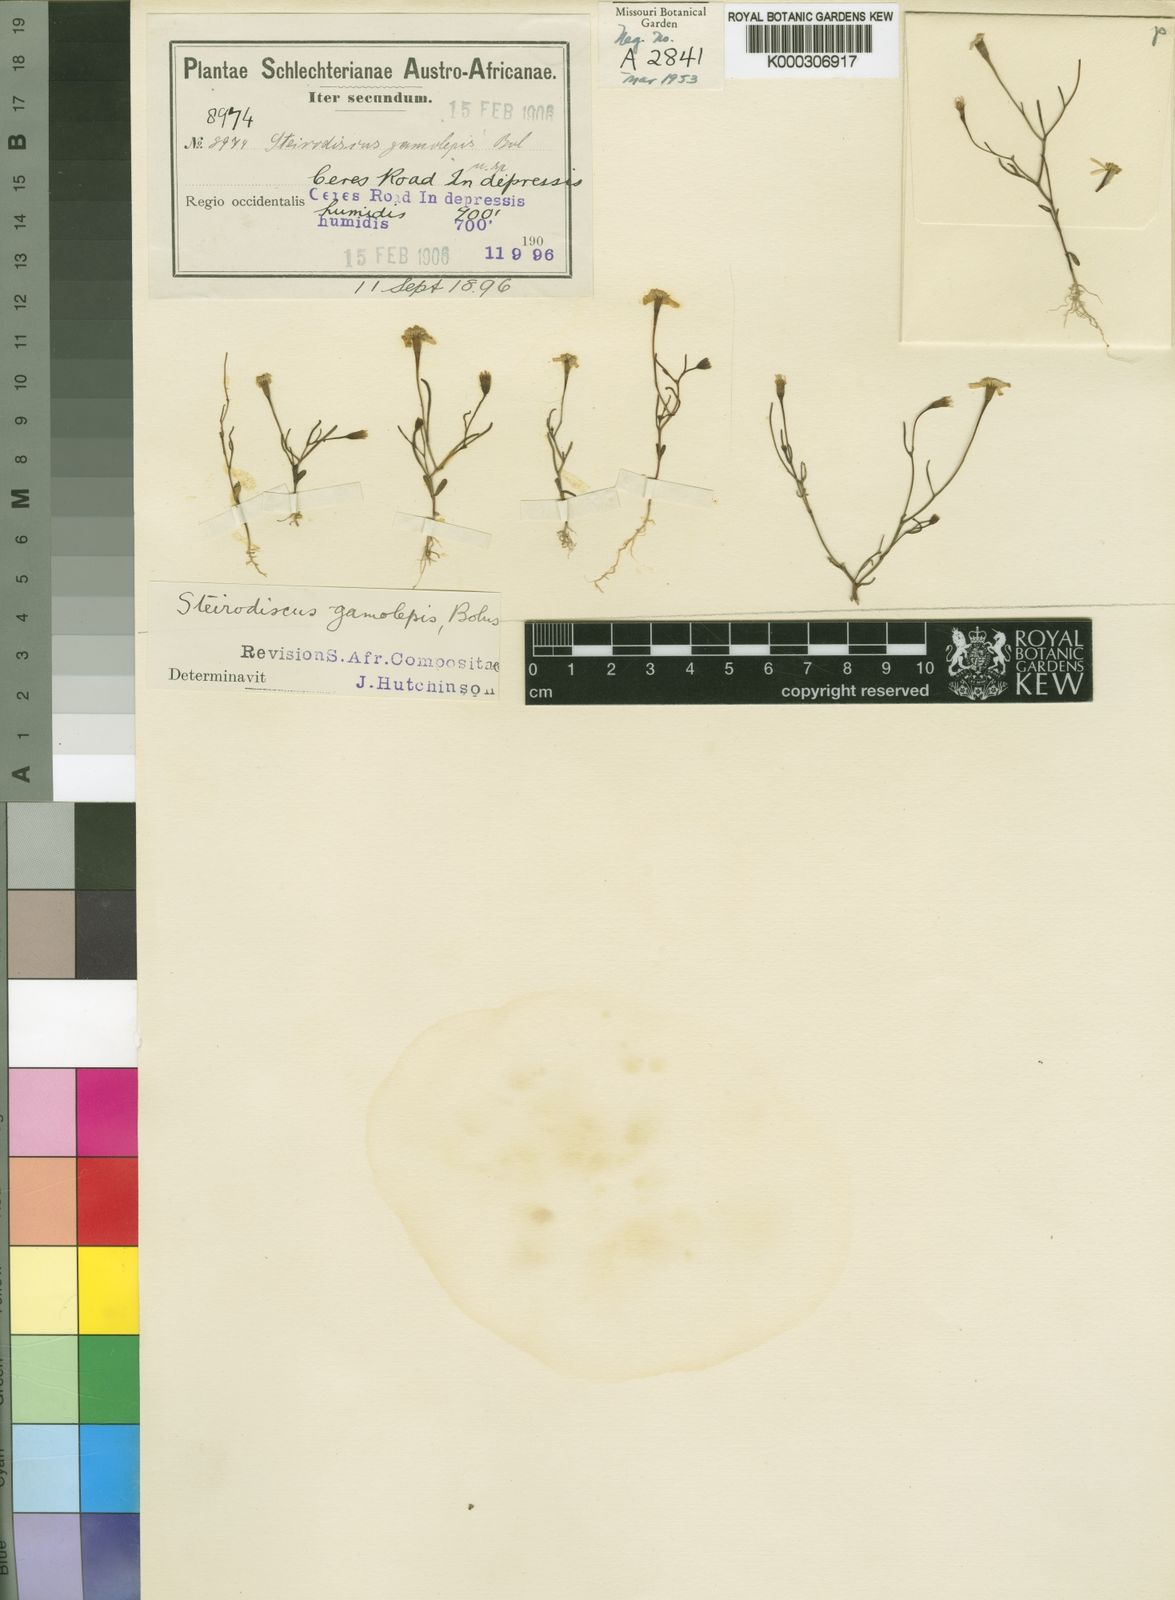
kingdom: Plantae
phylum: Tracheophyta
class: Magnoliopsida
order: Asterales
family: Asteraceae
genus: Steirodiscus
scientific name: Steirodiscus gamolepis
